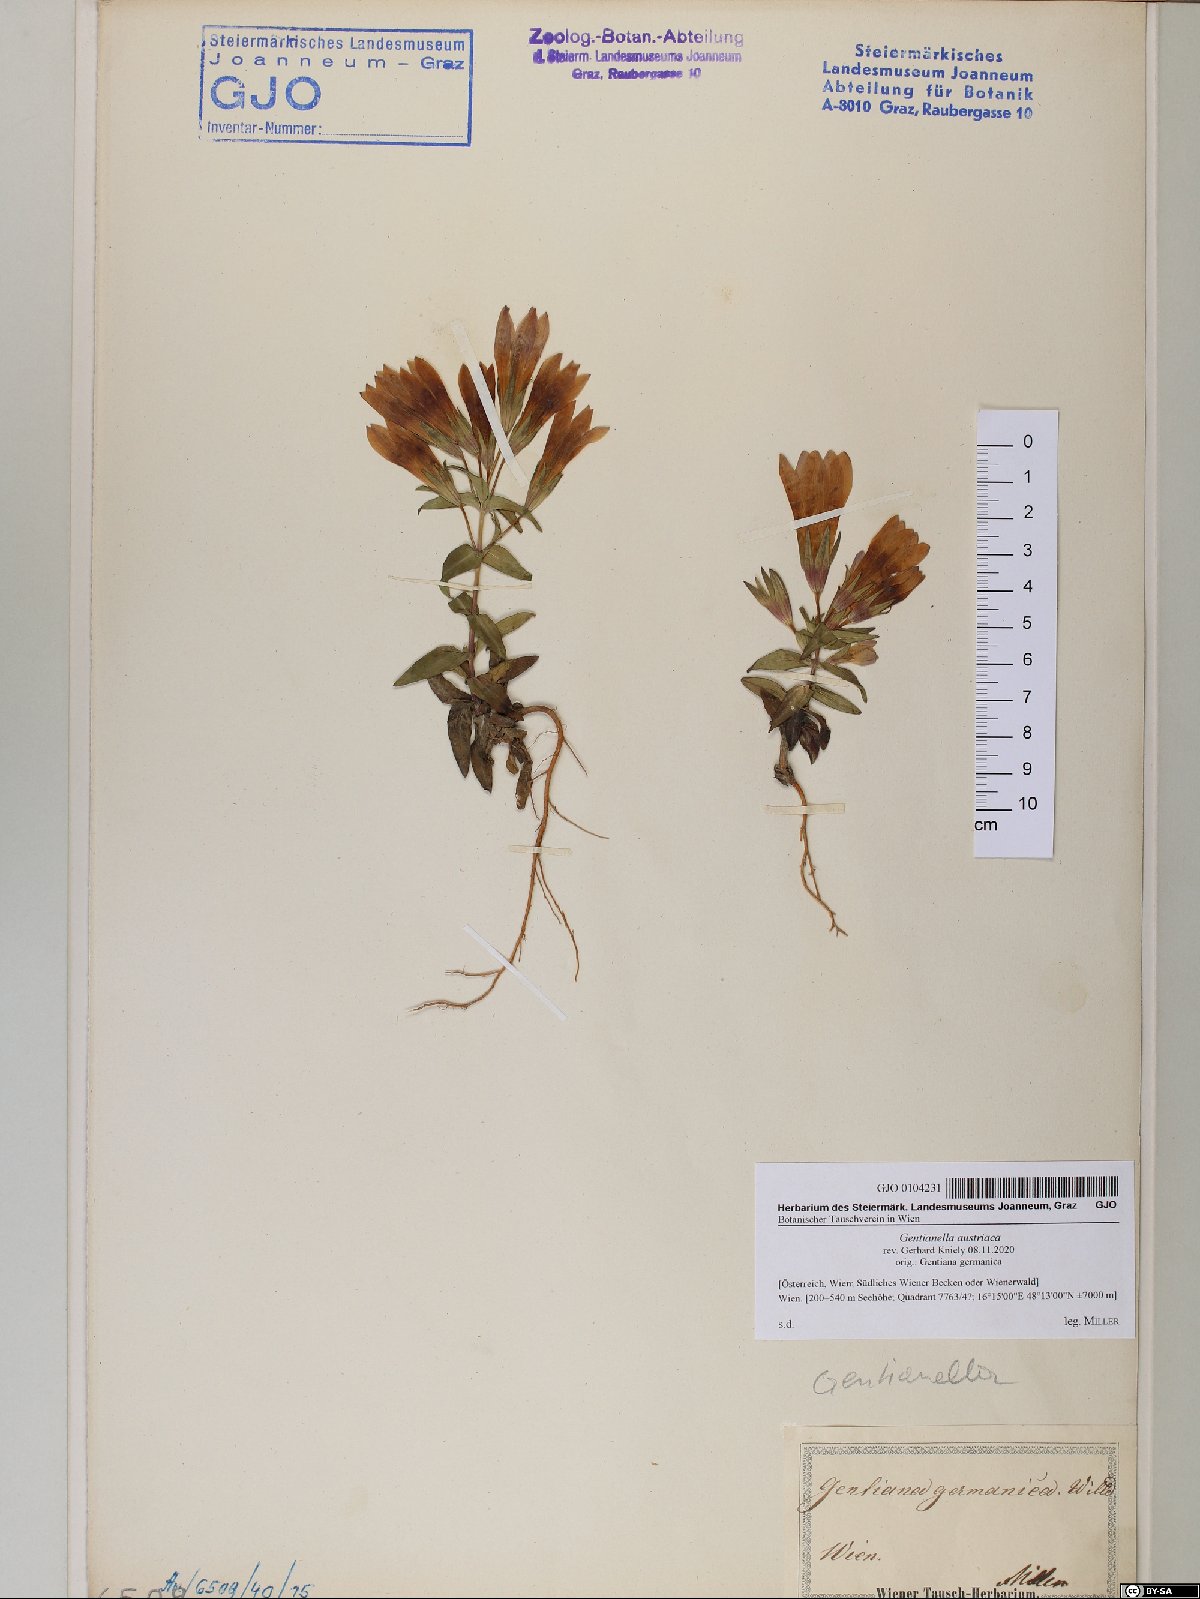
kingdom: Plantae
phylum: Tracheophyta
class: Magnoliopsida
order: Gentianales
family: Gentianaceae
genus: Gentianella
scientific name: Gentianella austriaca
